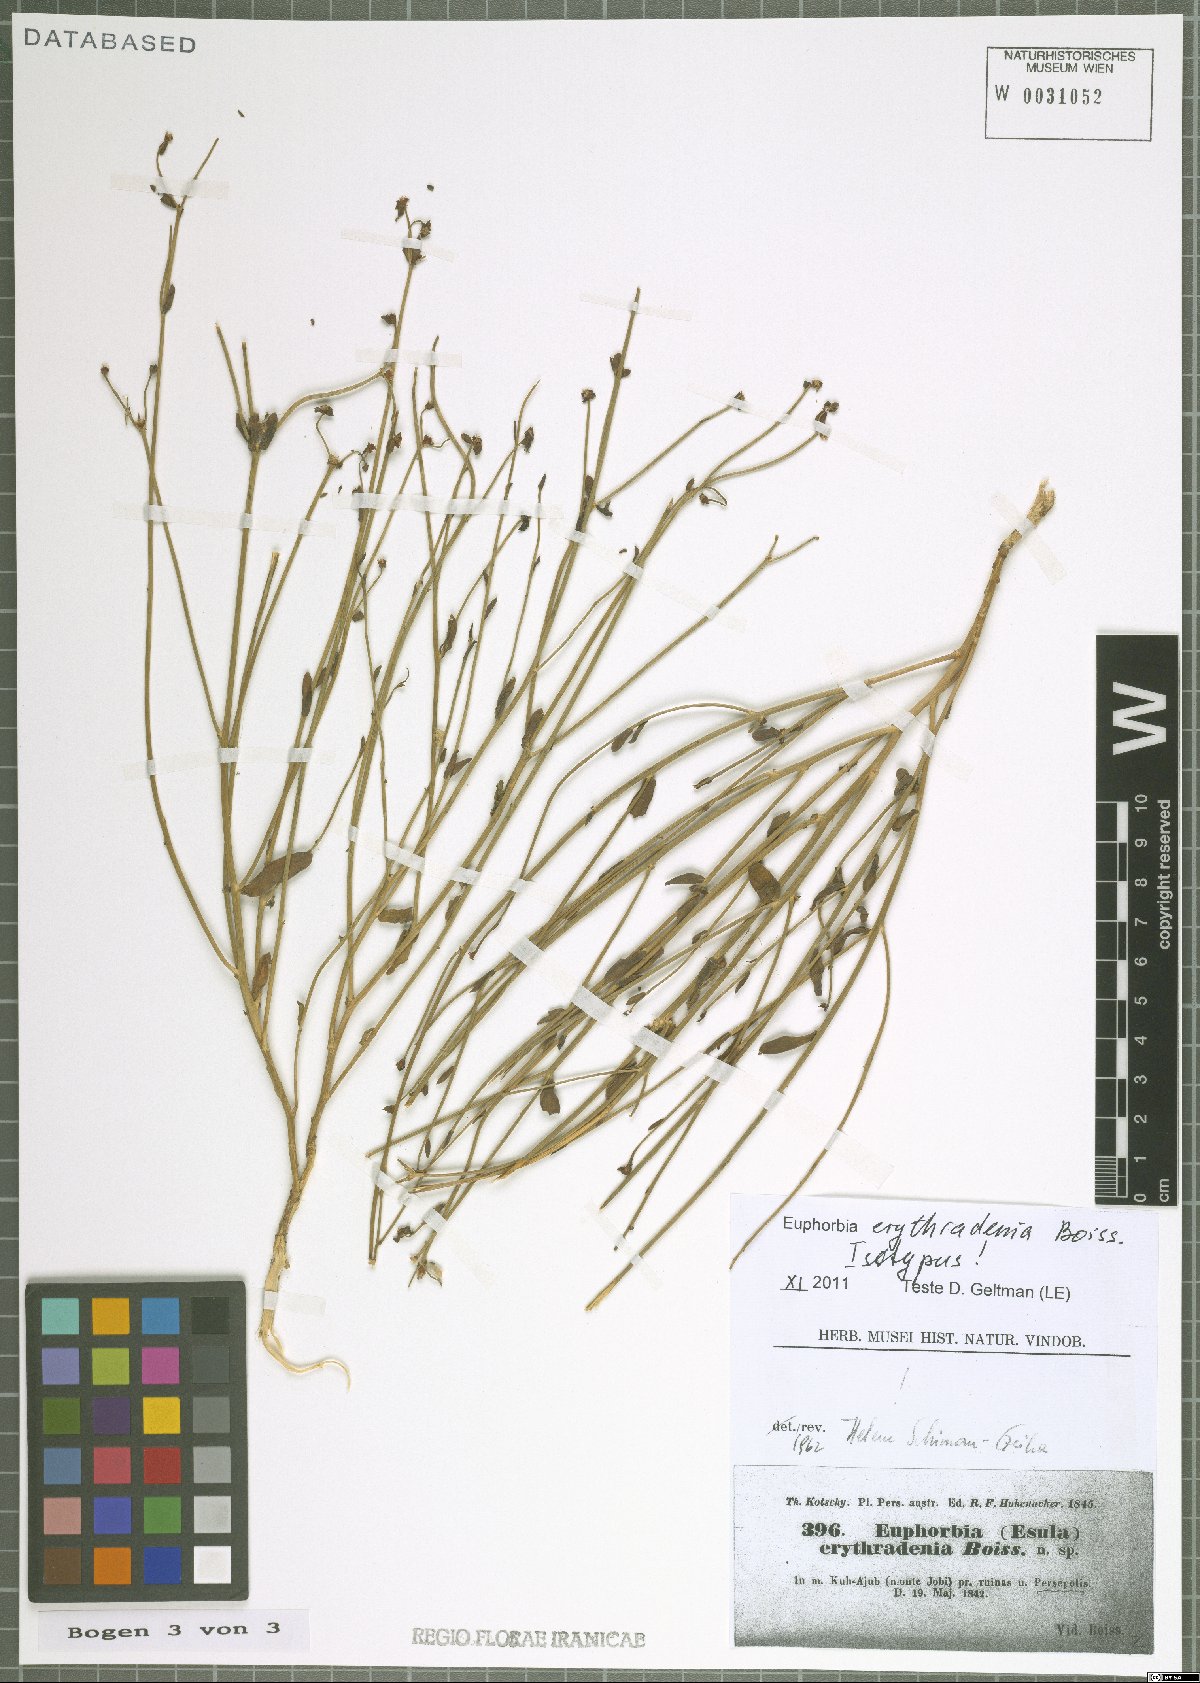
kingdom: Plantae
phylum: Tracheophyta
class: Magnoliopsida
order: Malpighiales
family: Euphorbiaceae
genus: Euphorbia
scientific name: Euphorbia erythradenia
